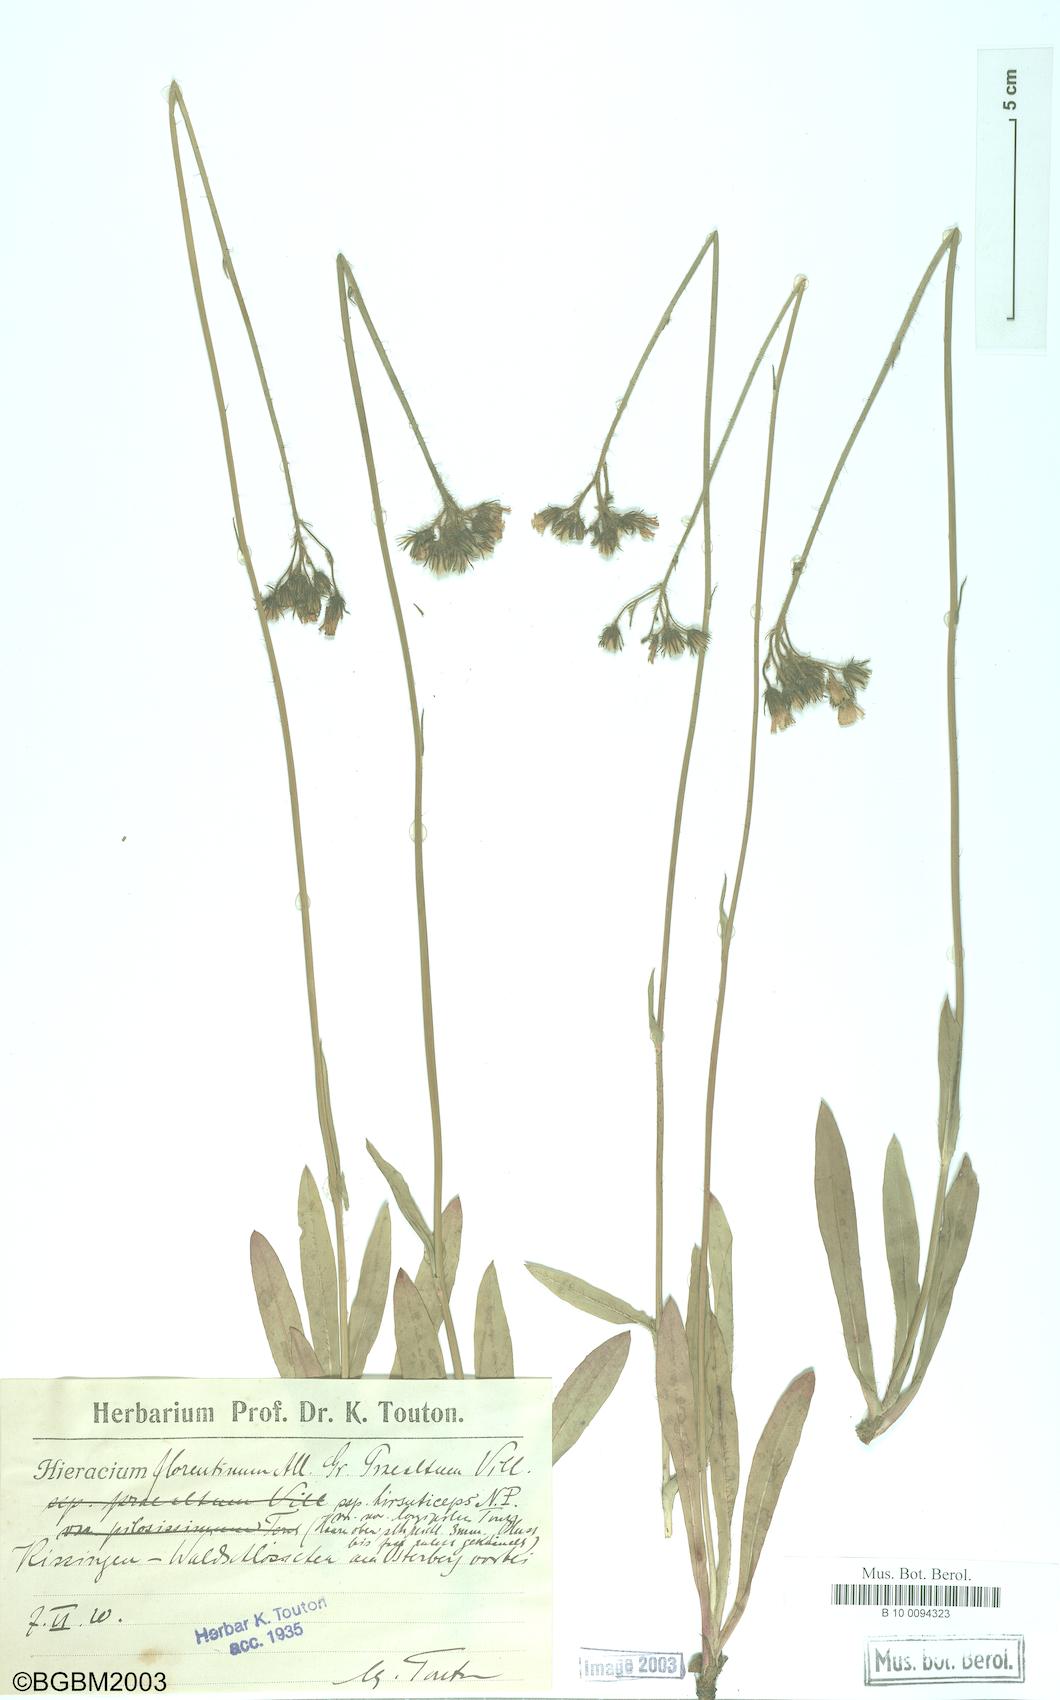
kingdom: Plantae
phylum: Tracheophyta
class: Magnoliopsida
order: Asterales
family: Asteraceae
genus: Hieracium
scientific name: Hieracium florentinum
